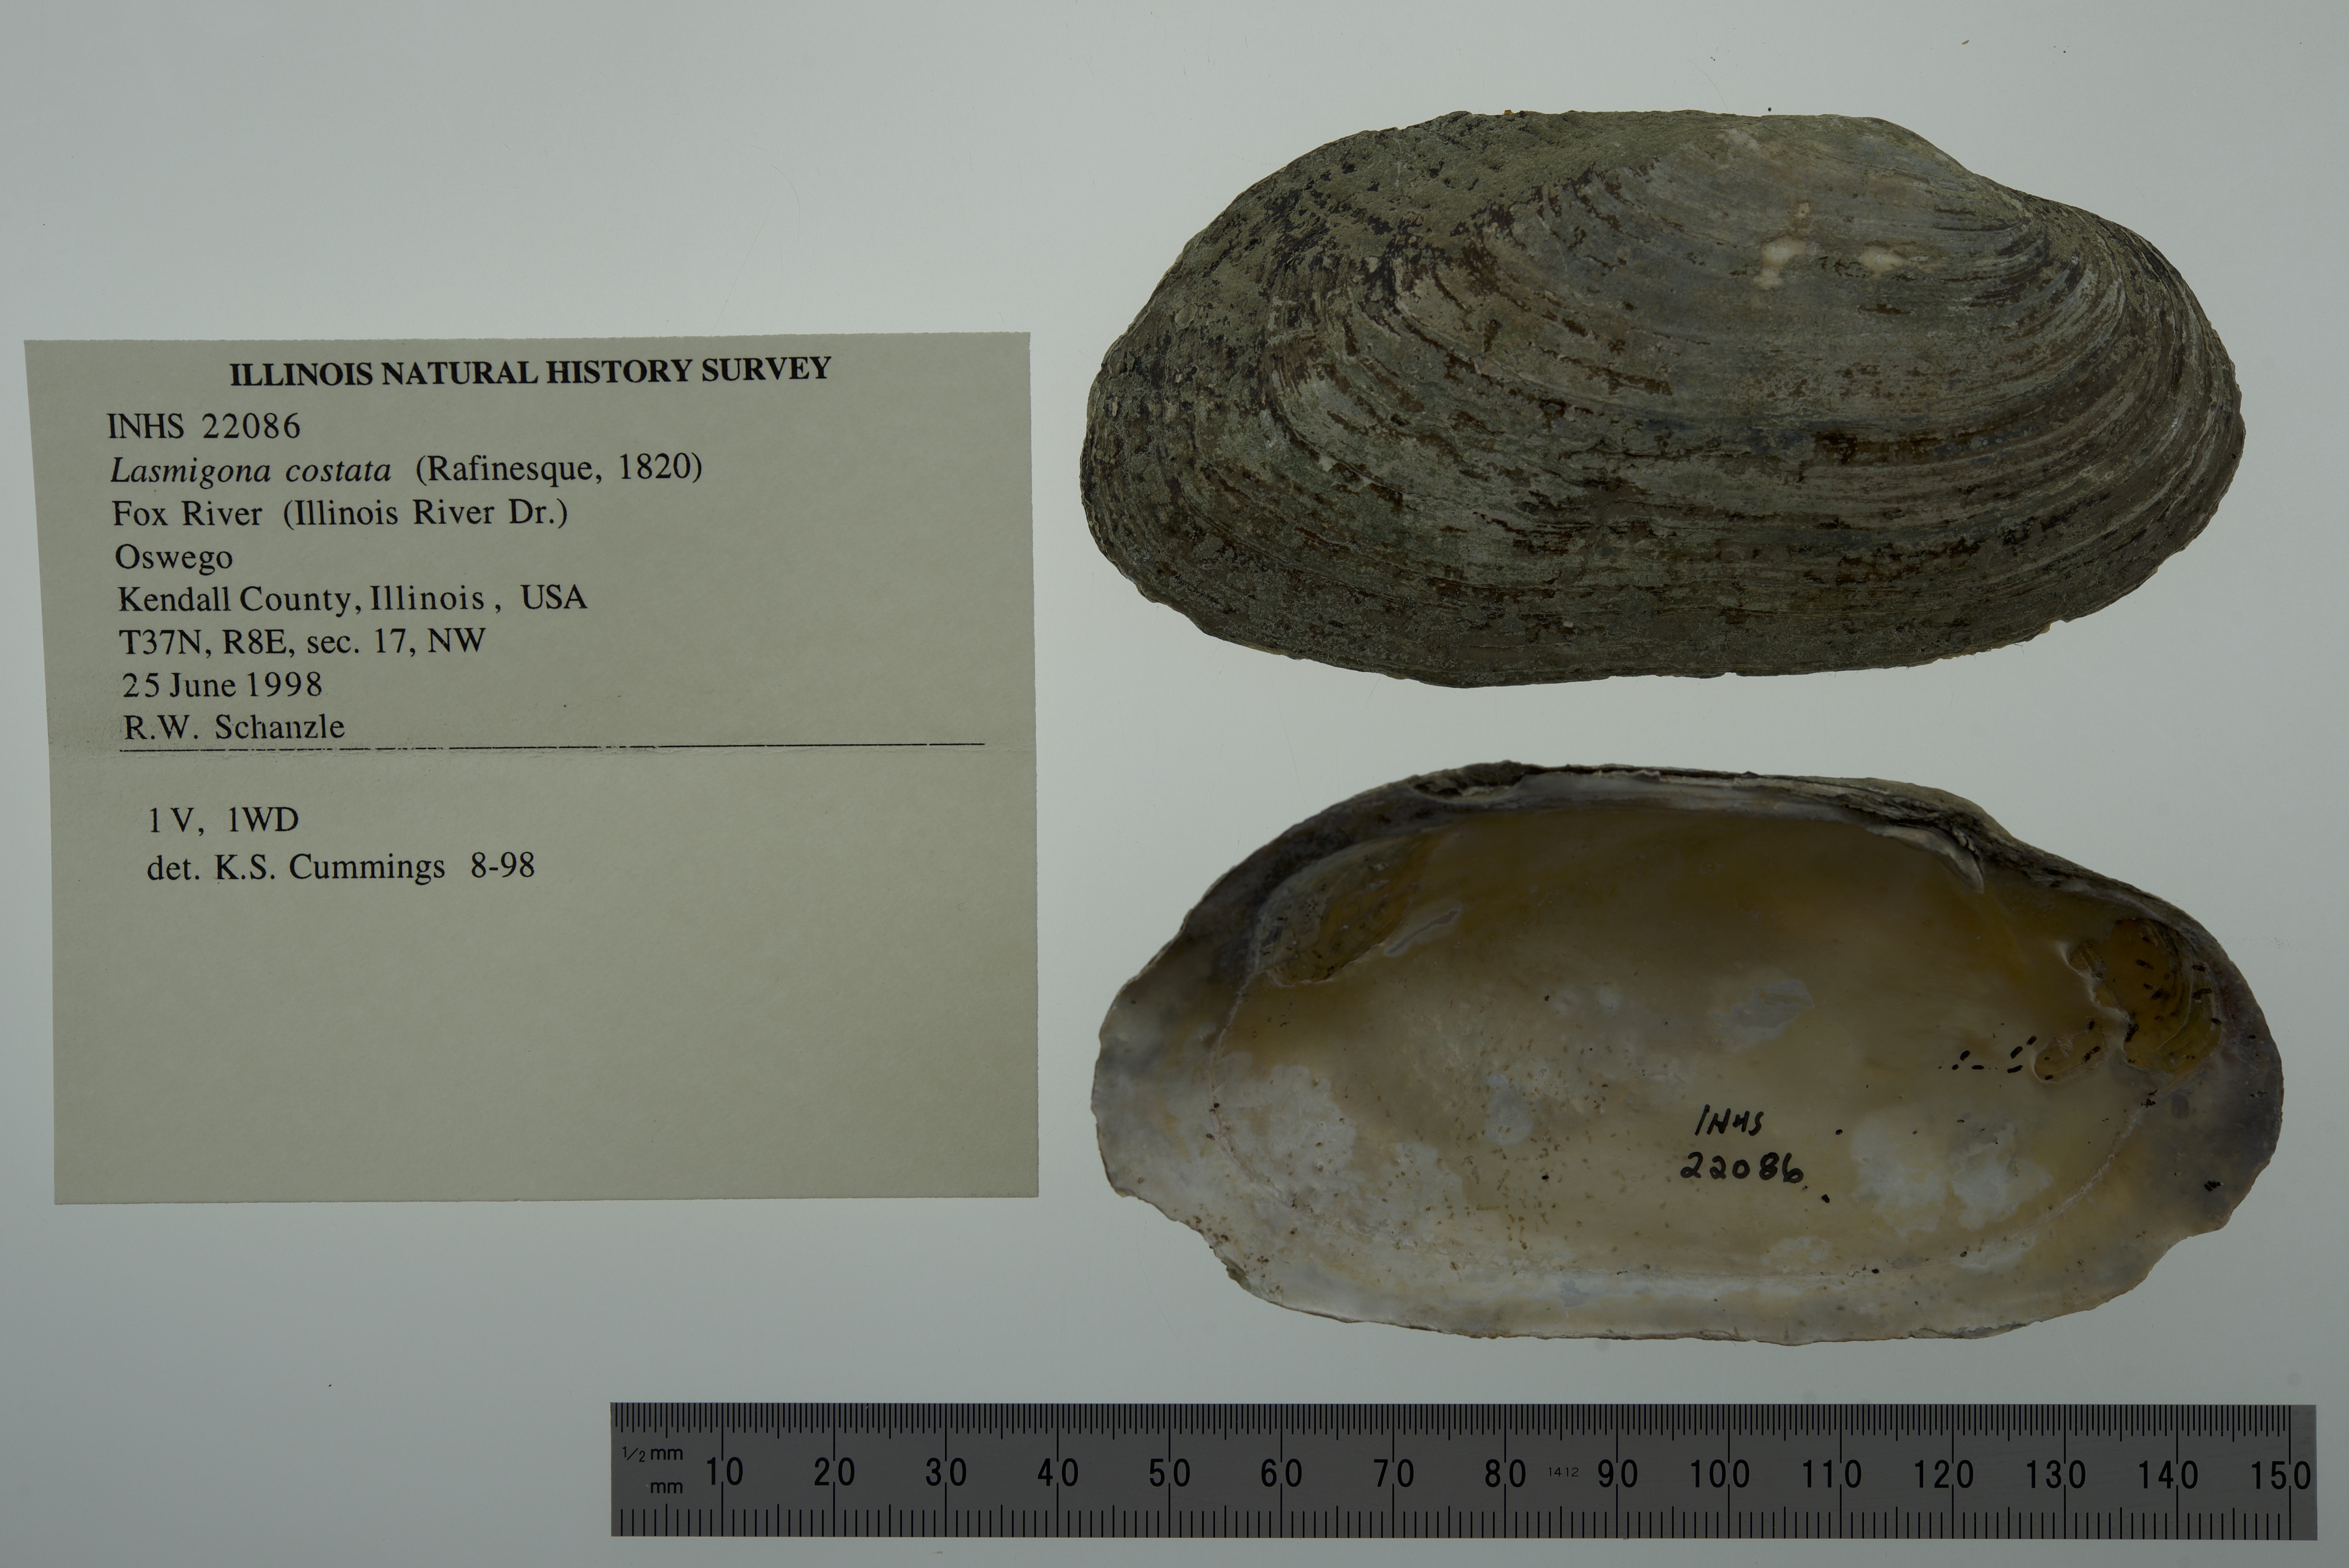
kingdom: Animalia
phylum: Mollusca
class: Bivalvia
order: Unionida
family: Unionidae
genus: Lasmigona
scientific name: Lasmigona costata
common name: Flutedshell
